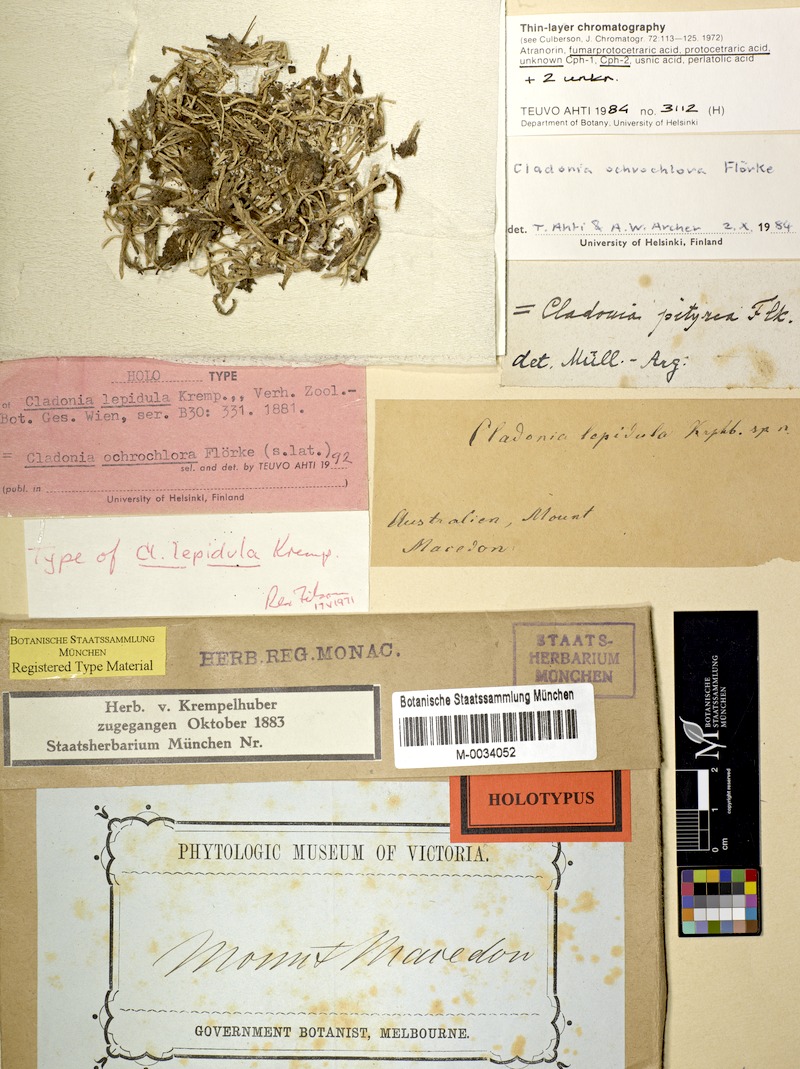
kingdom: Fungi
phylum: Ascomycota
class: Lecanoromycetes
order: Lecanorales
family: Cladoniaceae
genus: Cladonia
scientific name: Cladonia ochrochlora
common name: Smooth-footed powderhorn
